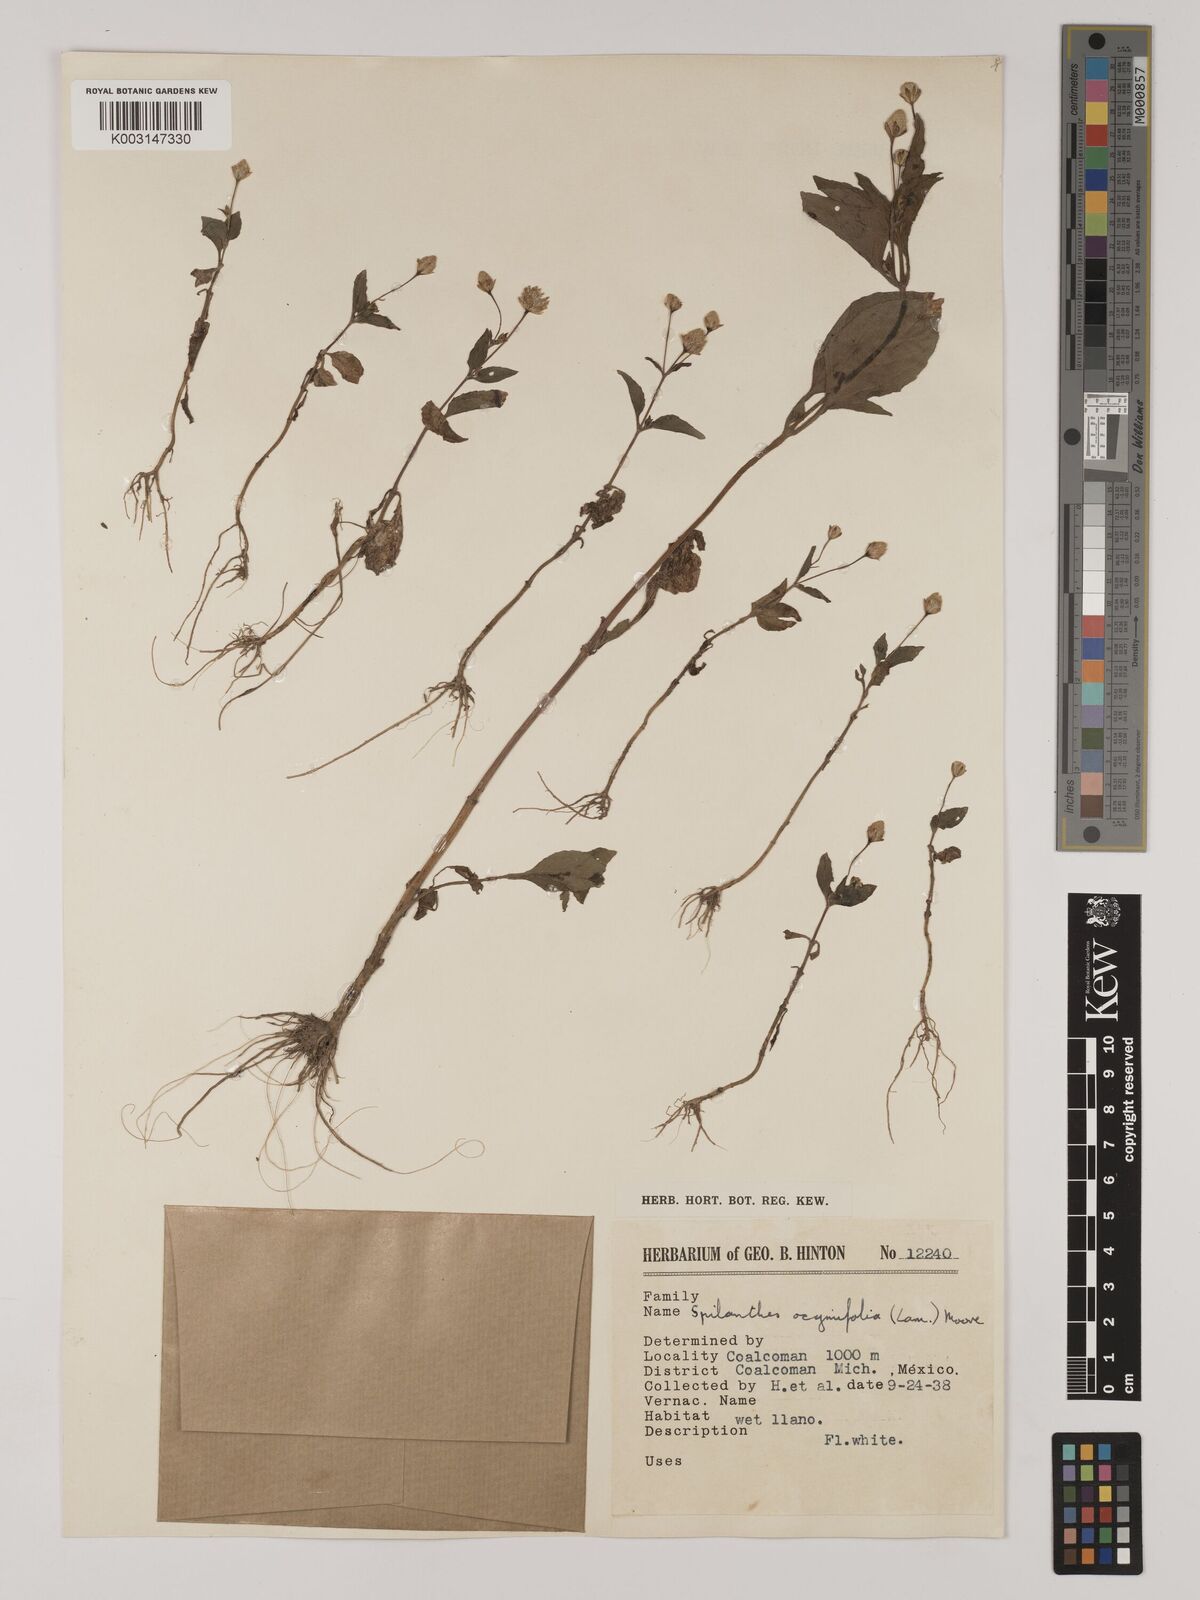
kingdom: Plantae
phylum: Tracheophyta
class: Magnoliopsida
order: Asterales
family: Asteraceae
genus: Acmella
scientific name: Acmella radicans
